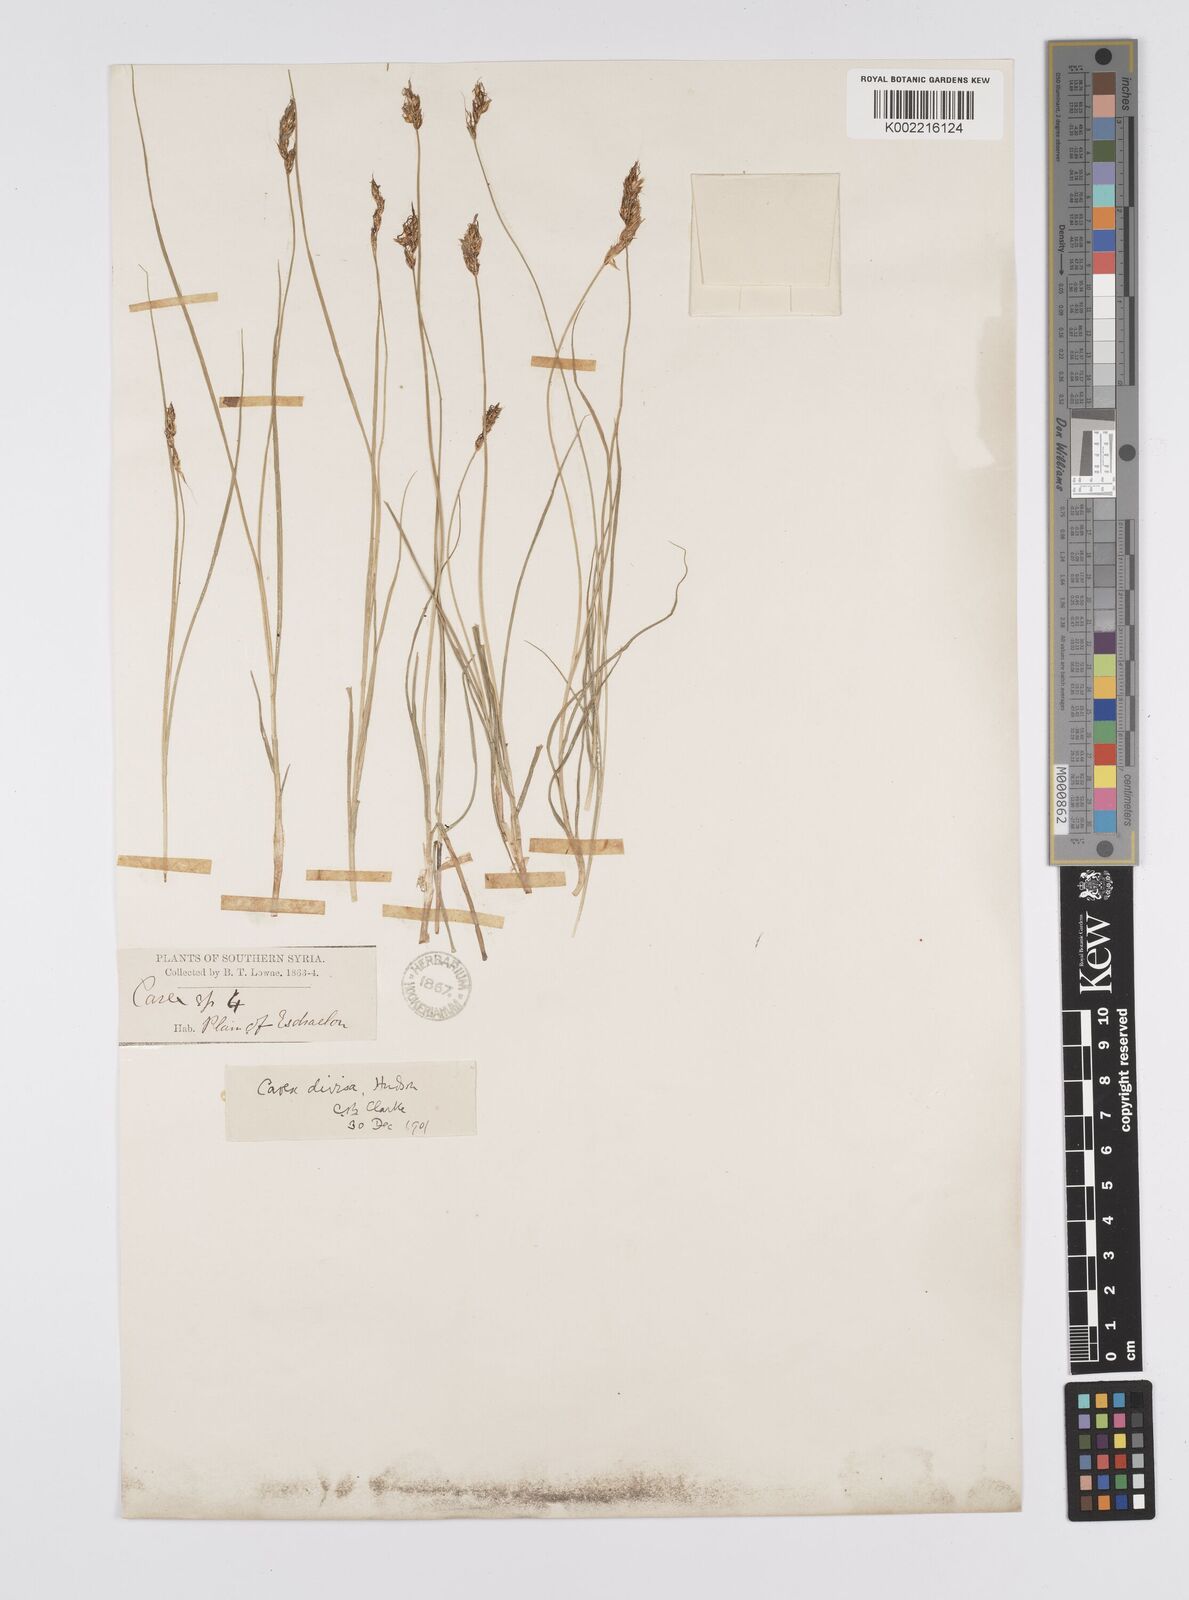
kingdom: Plantae
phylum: Tracheophyta
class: Liliopsida
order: Poales
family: Cyperaceae
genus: Carex
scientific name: Carex divisa
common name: Divided sedge
